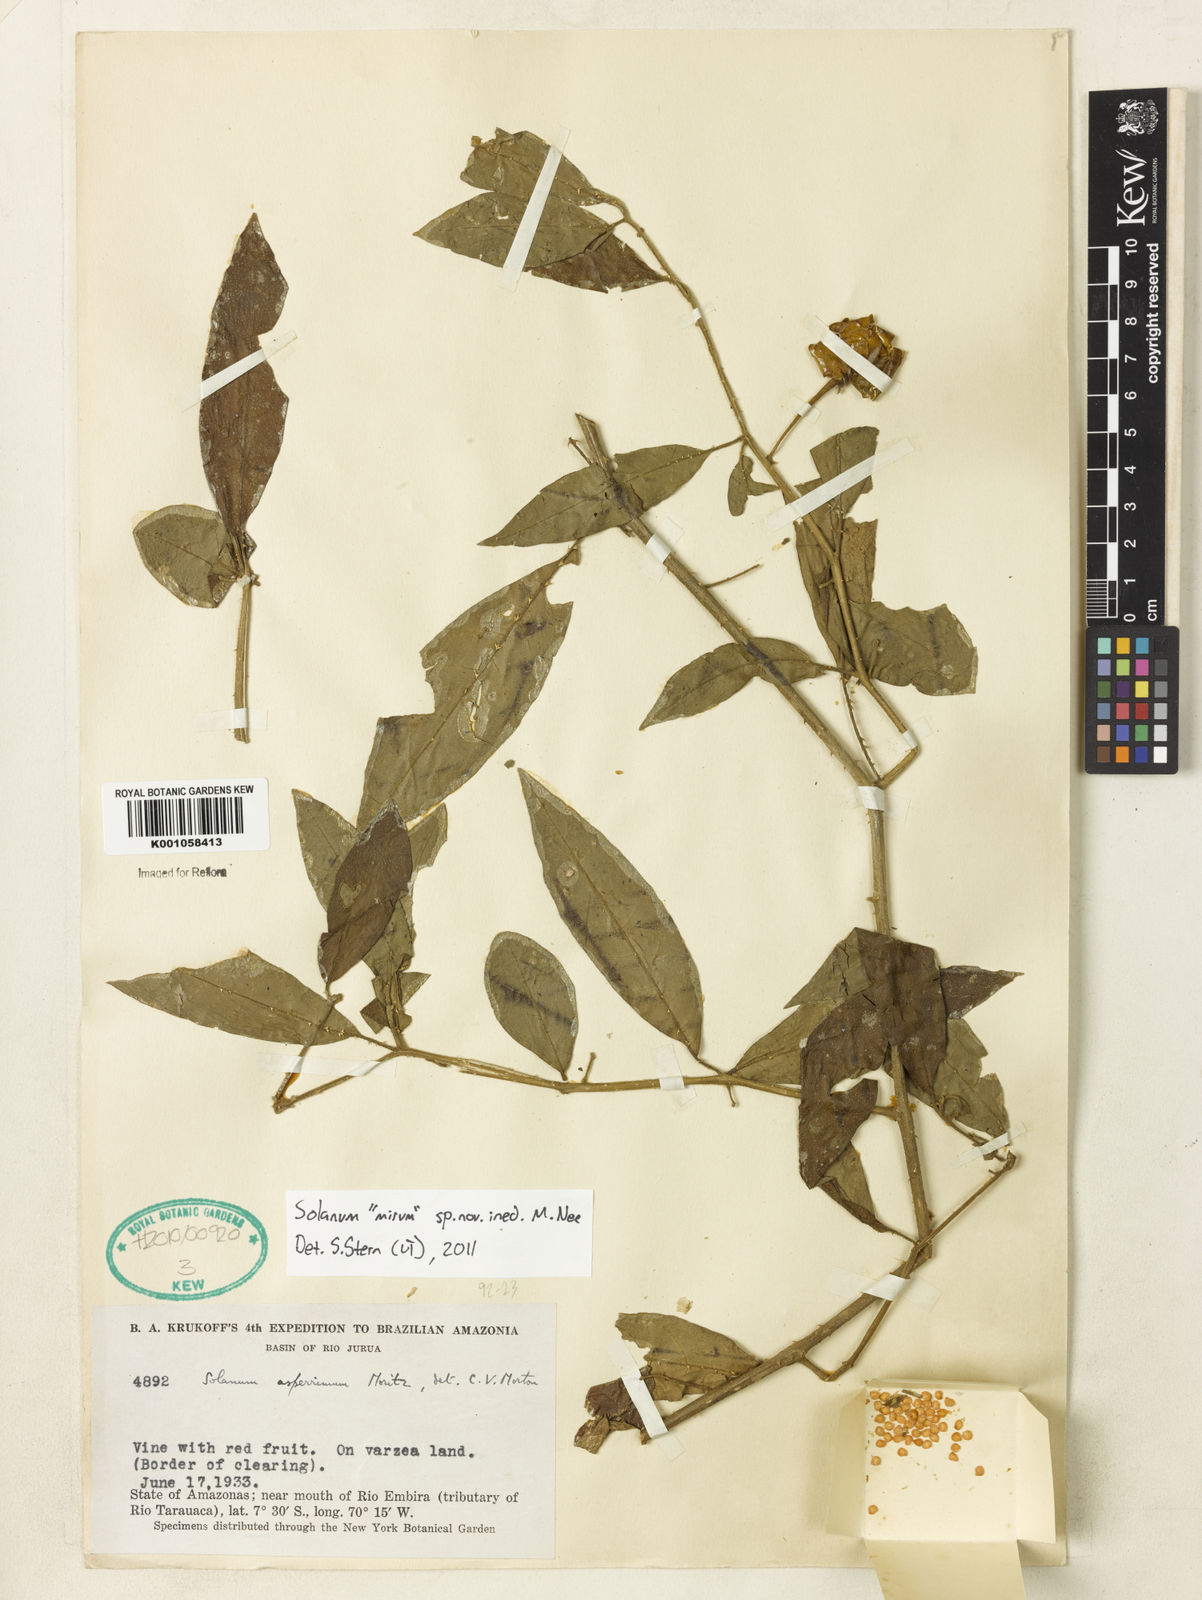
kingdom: Plantae
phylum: Tracheophyta
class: Magnoliopsida
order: Solanales
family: Solanaceae
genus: Solanum
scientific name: Solanum
